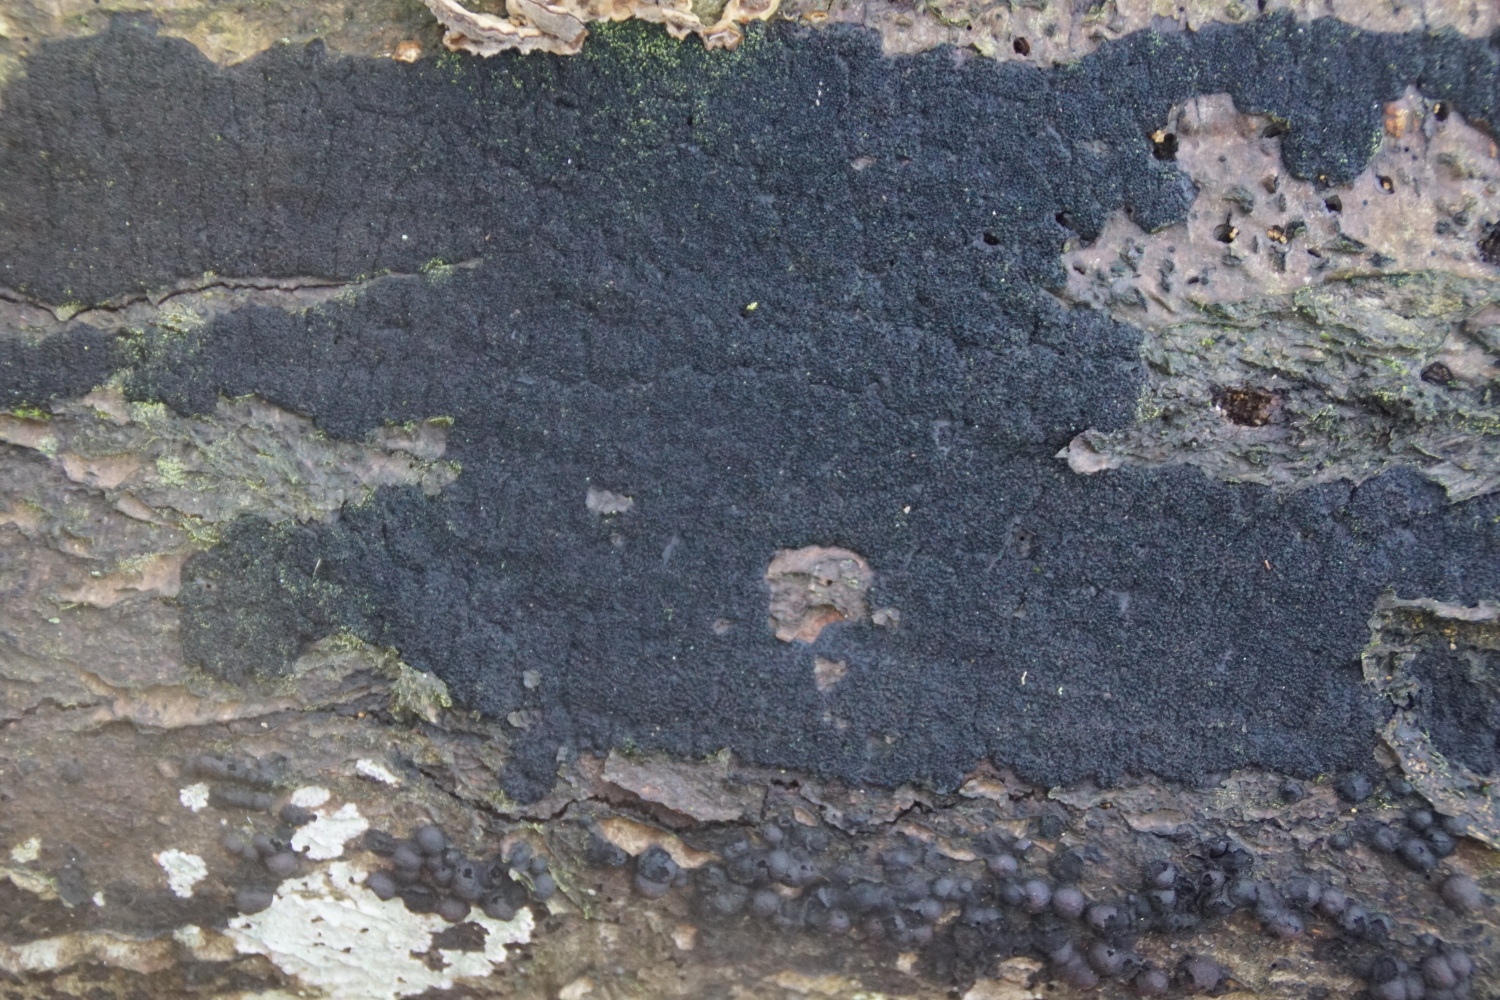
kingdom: Fungi
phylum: Ascomycota
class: Sordariomycetes
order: Xylariales
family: Diatrypaceae
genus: Eutypa
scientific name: Eutypa spinosa
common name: grov kulskorpe
